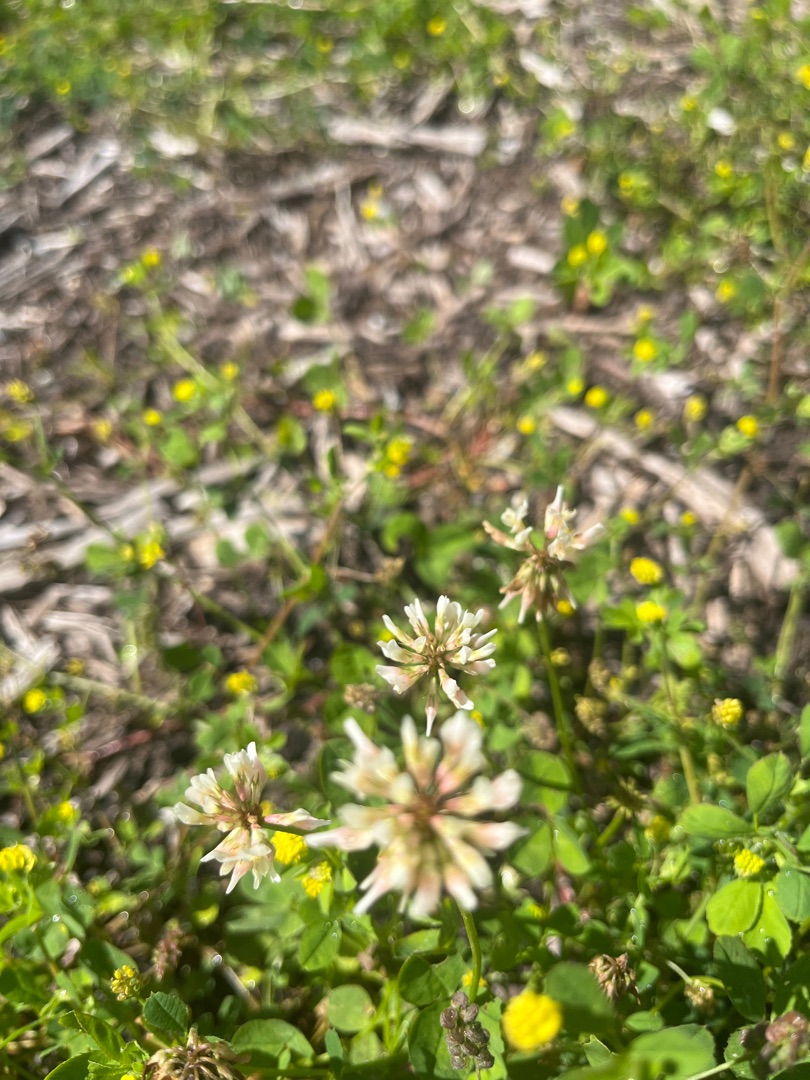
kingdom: Plantae
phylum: Tracheophyta
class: Magnoliopsida
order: Fabales
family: Fabaceae
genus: Trifolium
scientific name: Trifolium repens
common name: Hvid-kløver
